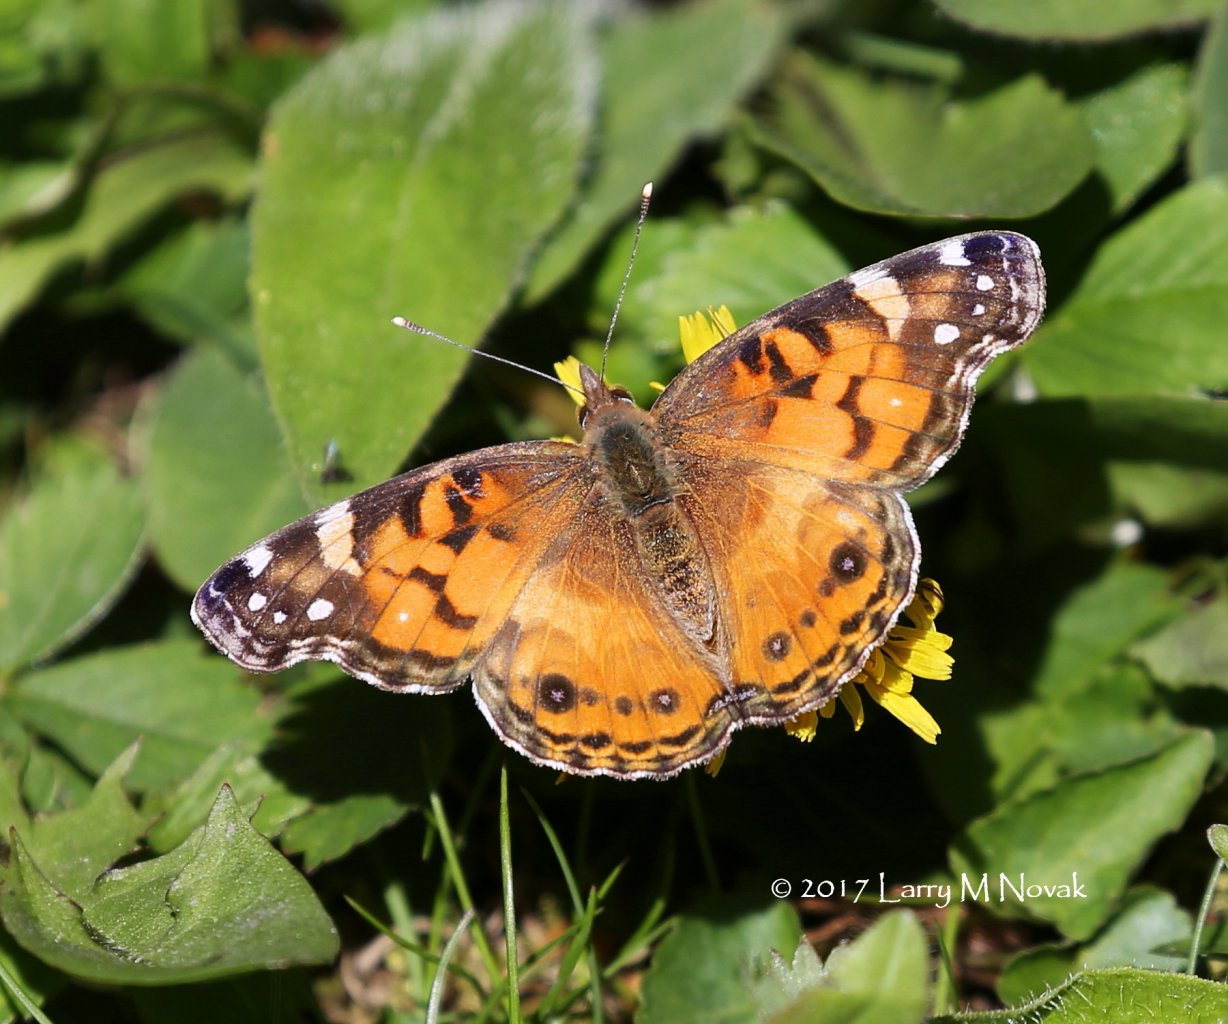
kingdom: Animalia
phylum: Arthropoda
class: Insecta
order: Lepidoptera
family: Nymphalidae
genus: Vanessa
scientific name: Vanessa virginiensis
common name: American Lady
